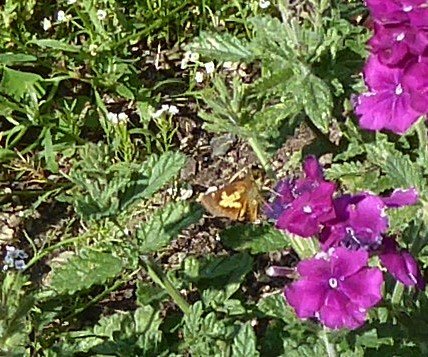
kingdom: Animalia
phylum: Arthropoda
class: Insecta
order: Lepidoptera
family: Hesperiidae
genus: Poanes
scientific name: Poanes massasoit
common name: Mulberry Wing
